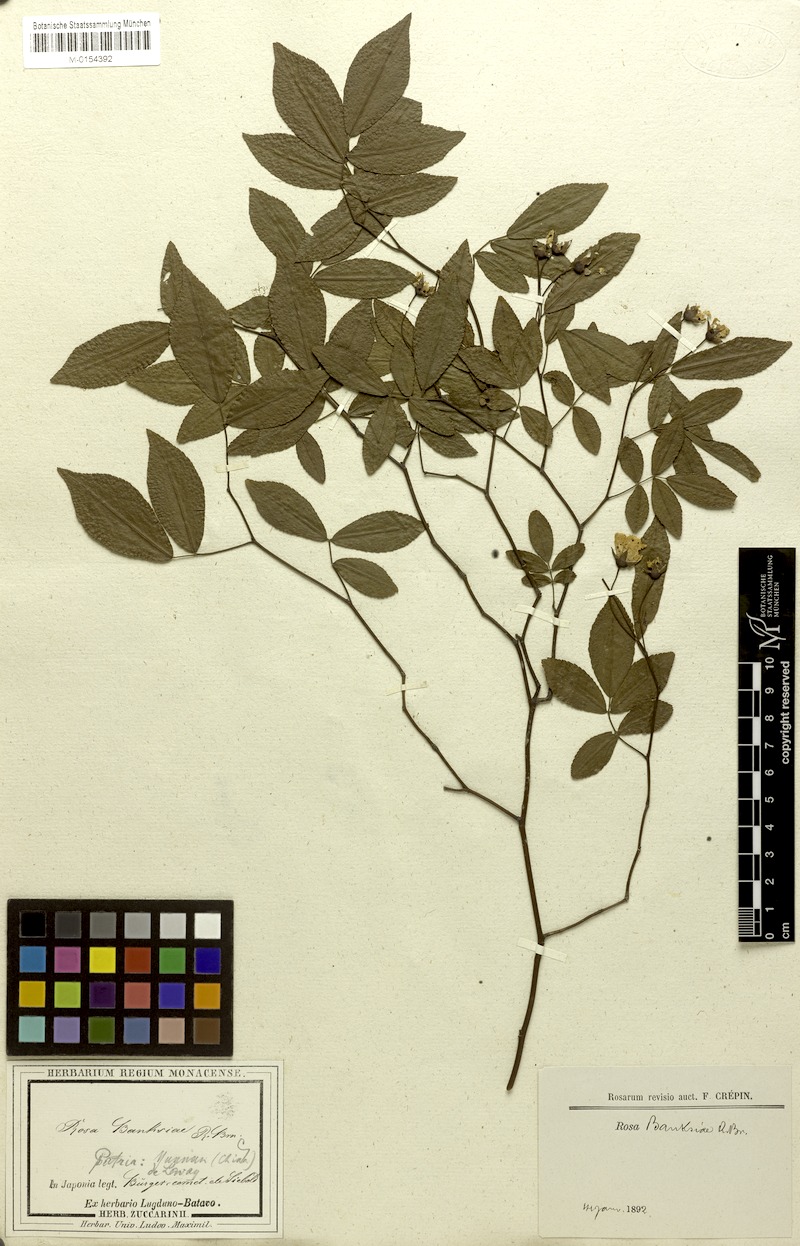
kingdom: Plantae
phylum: Tracheophyta
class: Magnoliopsida
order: Rosales
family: Rosaceae
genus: Rosa
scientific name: Rosa banksiae
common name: Banksian rose
